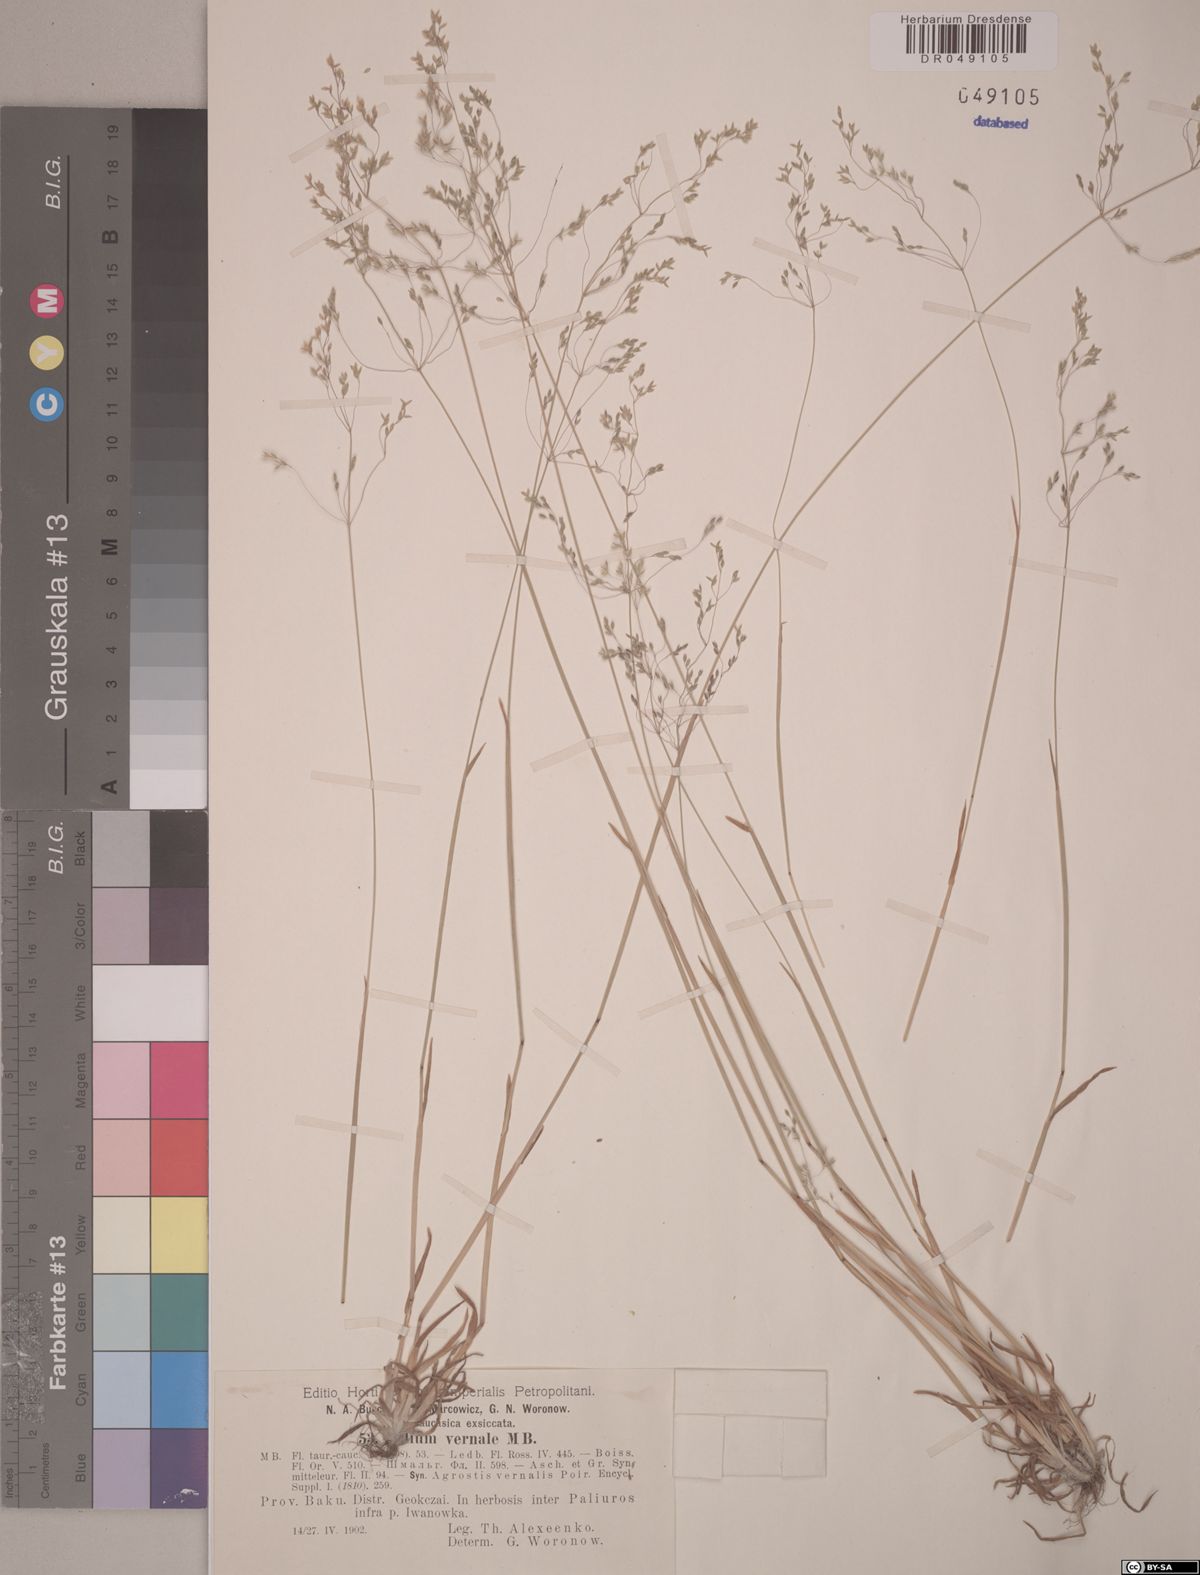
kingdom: Plantae
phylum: Tracheophyta
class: Liliopsida
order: Poales
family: Poaceae
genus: Milium
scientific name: Milium vernale
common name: Early millet
